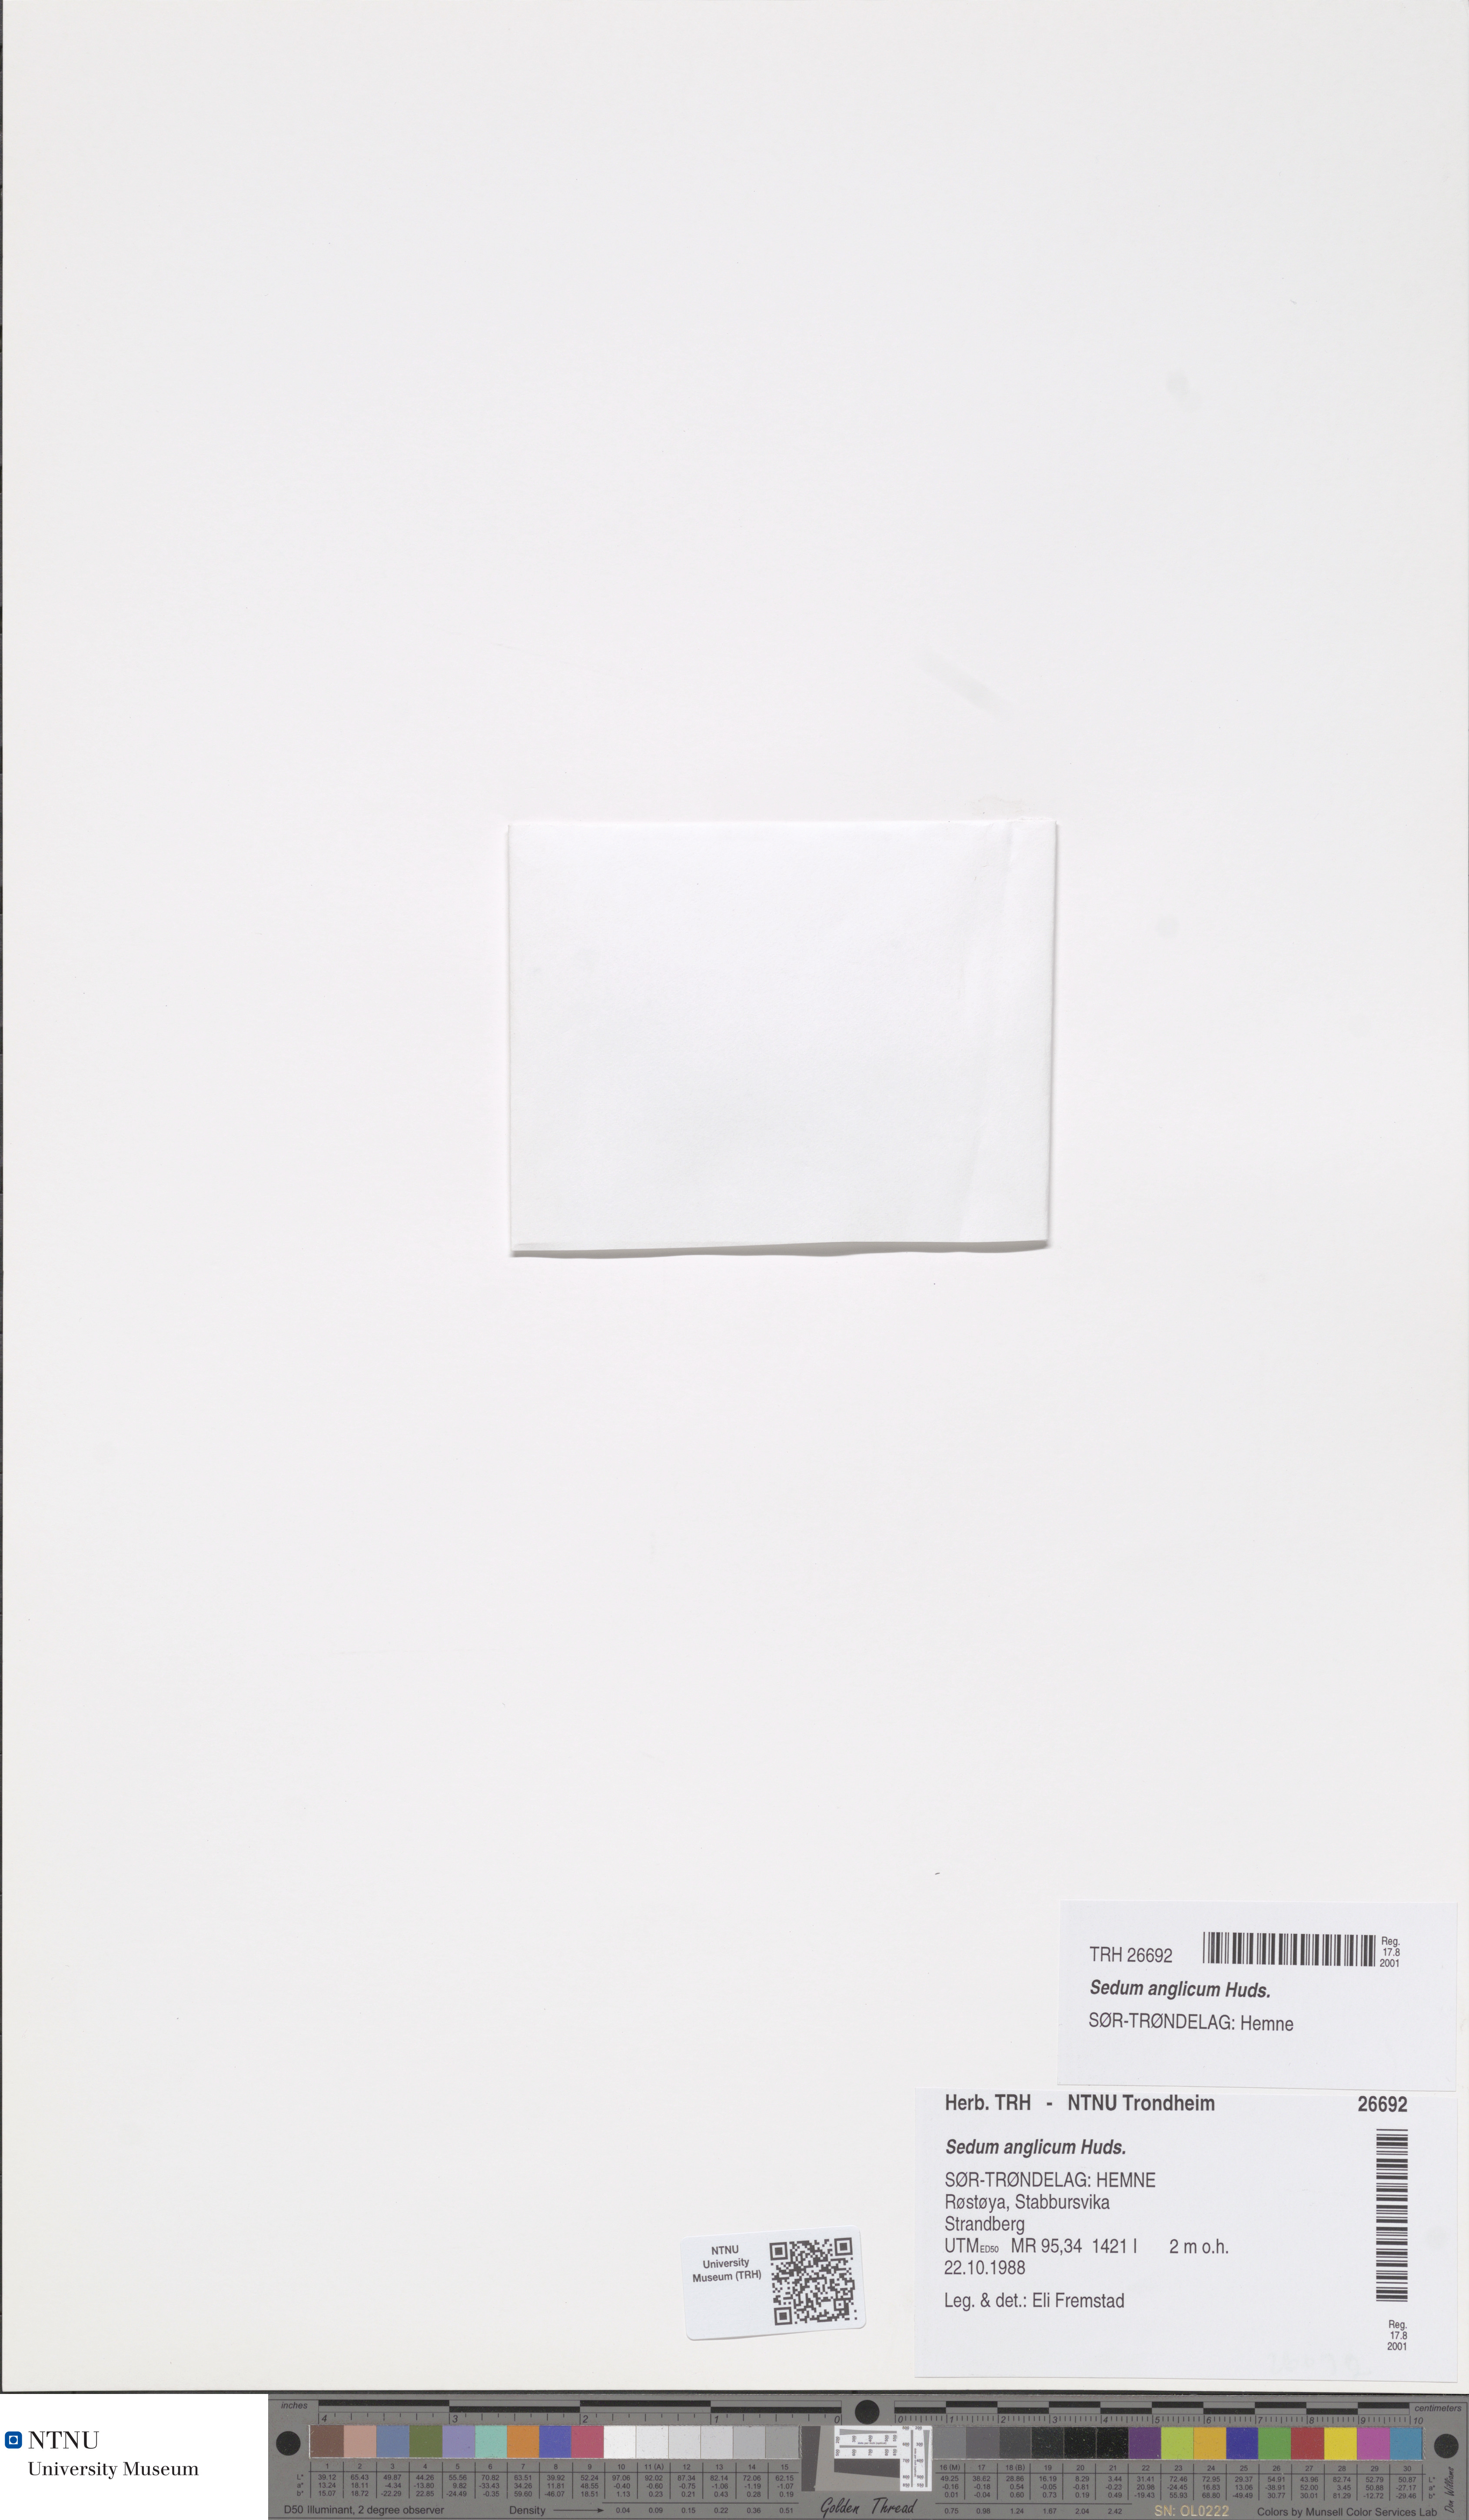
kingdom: Plantae
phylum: Tracheophyta
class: Magnoliopsida
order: Saxifragales
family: Crassulaceae
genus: Sedum
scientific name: Sedum anglicum
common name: English stonecrop
